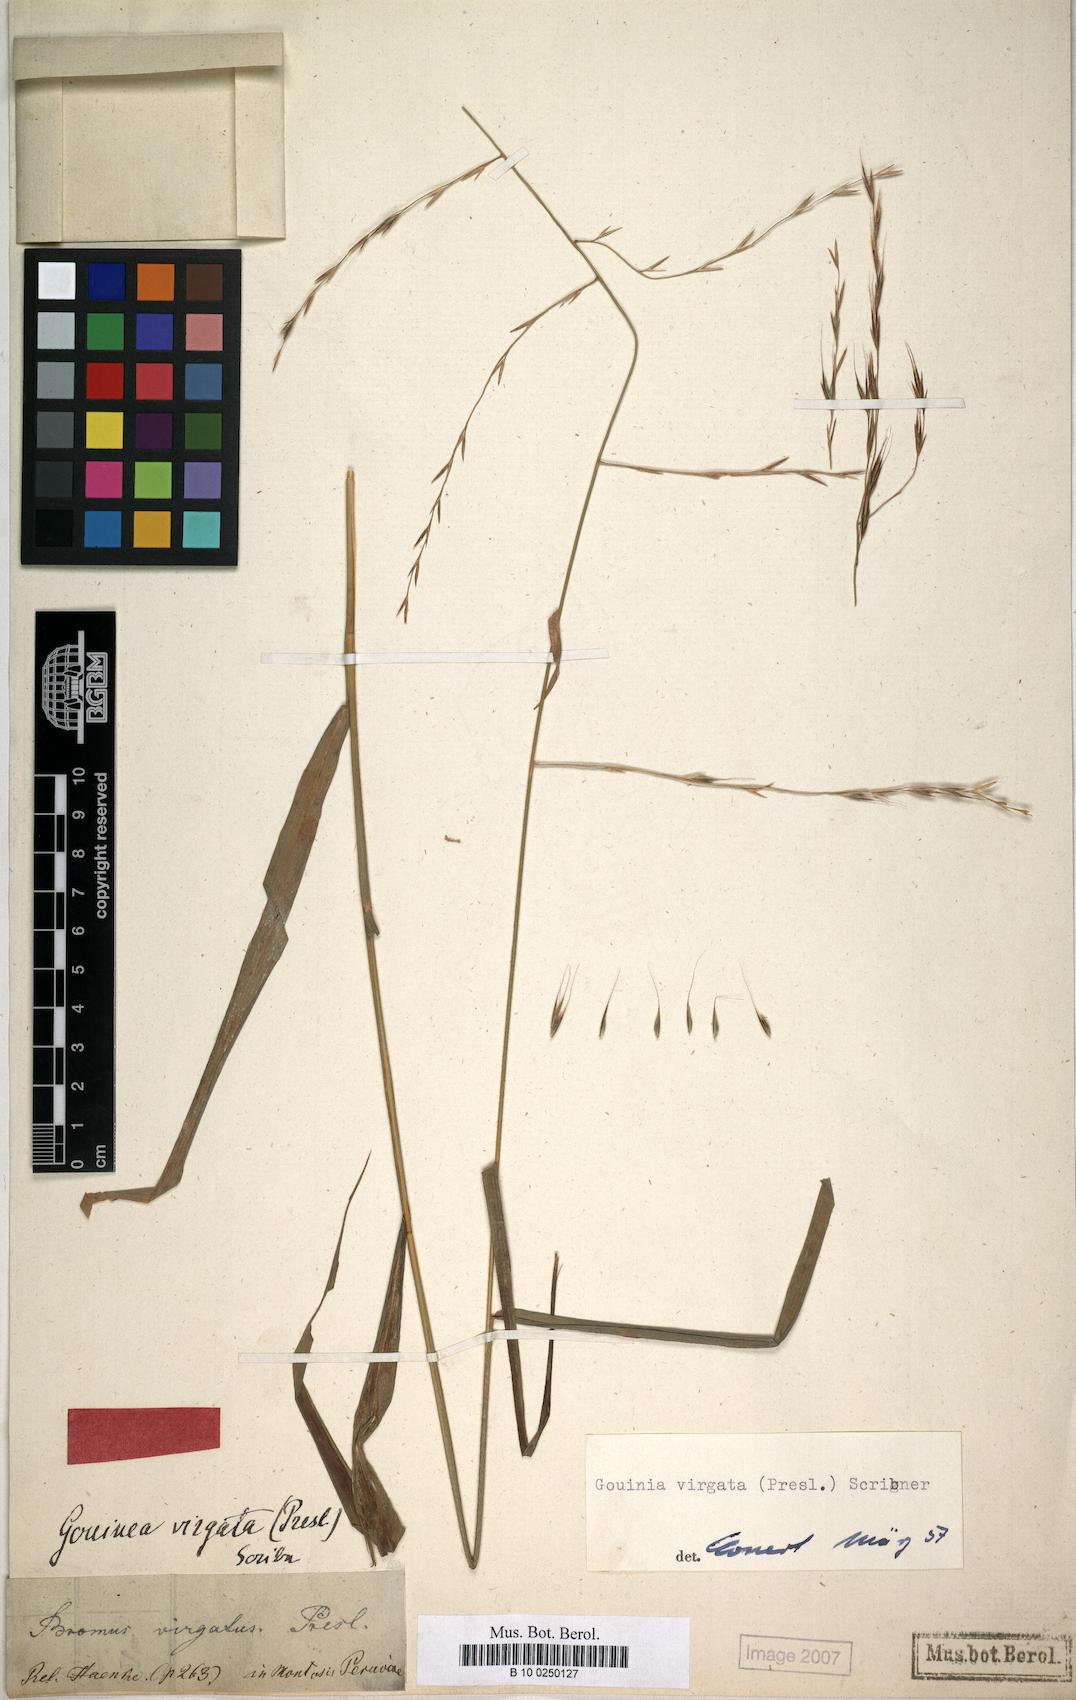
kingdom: Plantae
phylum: Tracheophyta
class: Liliopsida
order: Poales
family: Poaceae
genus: Gouinia
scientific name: Gouinia virgata
